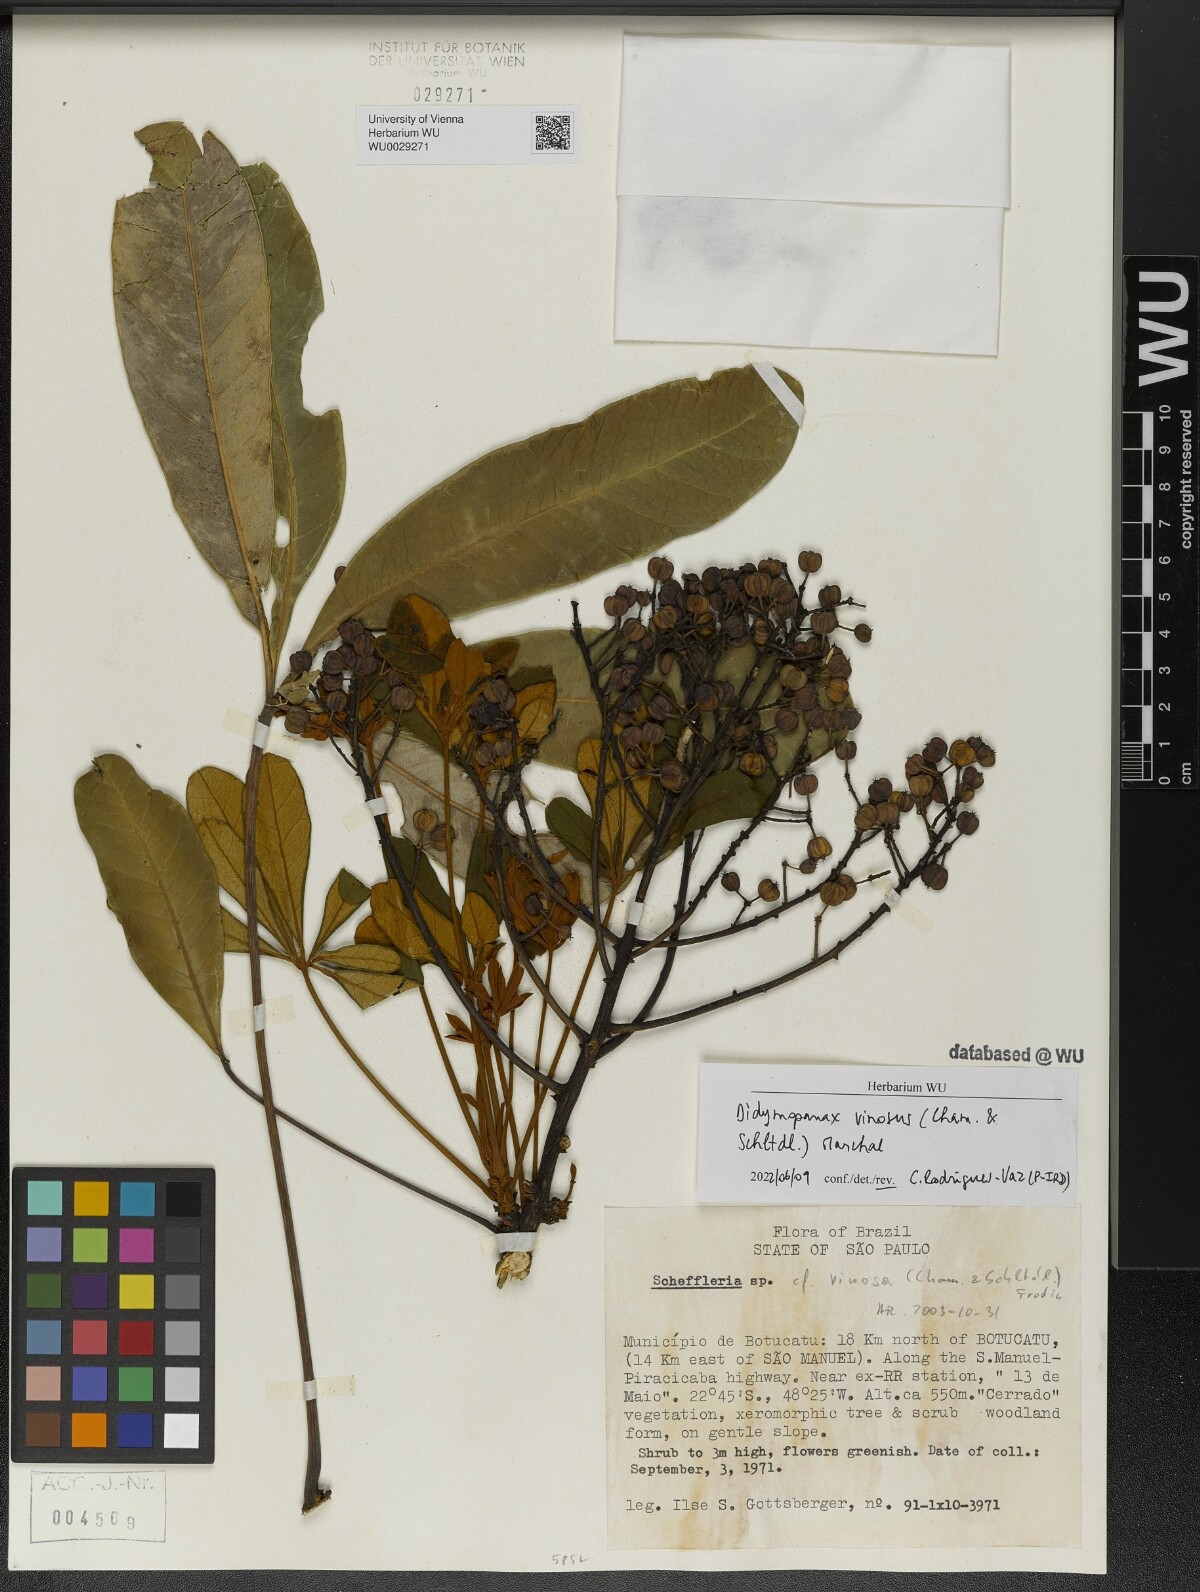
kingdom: Plantae
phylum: Tracheophyta
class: Magnoliopsida
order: Apiales
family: Araliaceae
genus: Didymopanax
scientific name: Didymopanax vinosus
